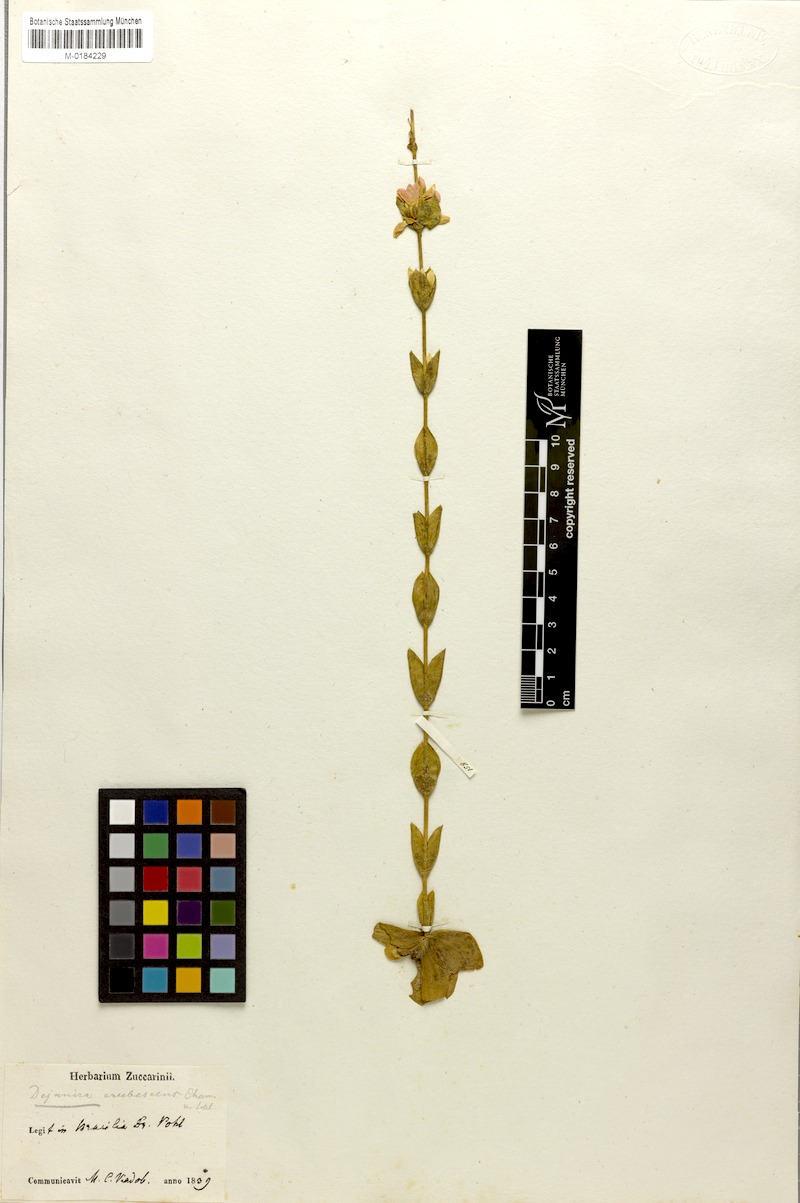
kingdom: Plantae
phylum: Tracheophyta
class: Magnoliopsida
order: Gentianales
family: Gentianaceae
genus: Deianira
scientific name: Deianira erubescens
